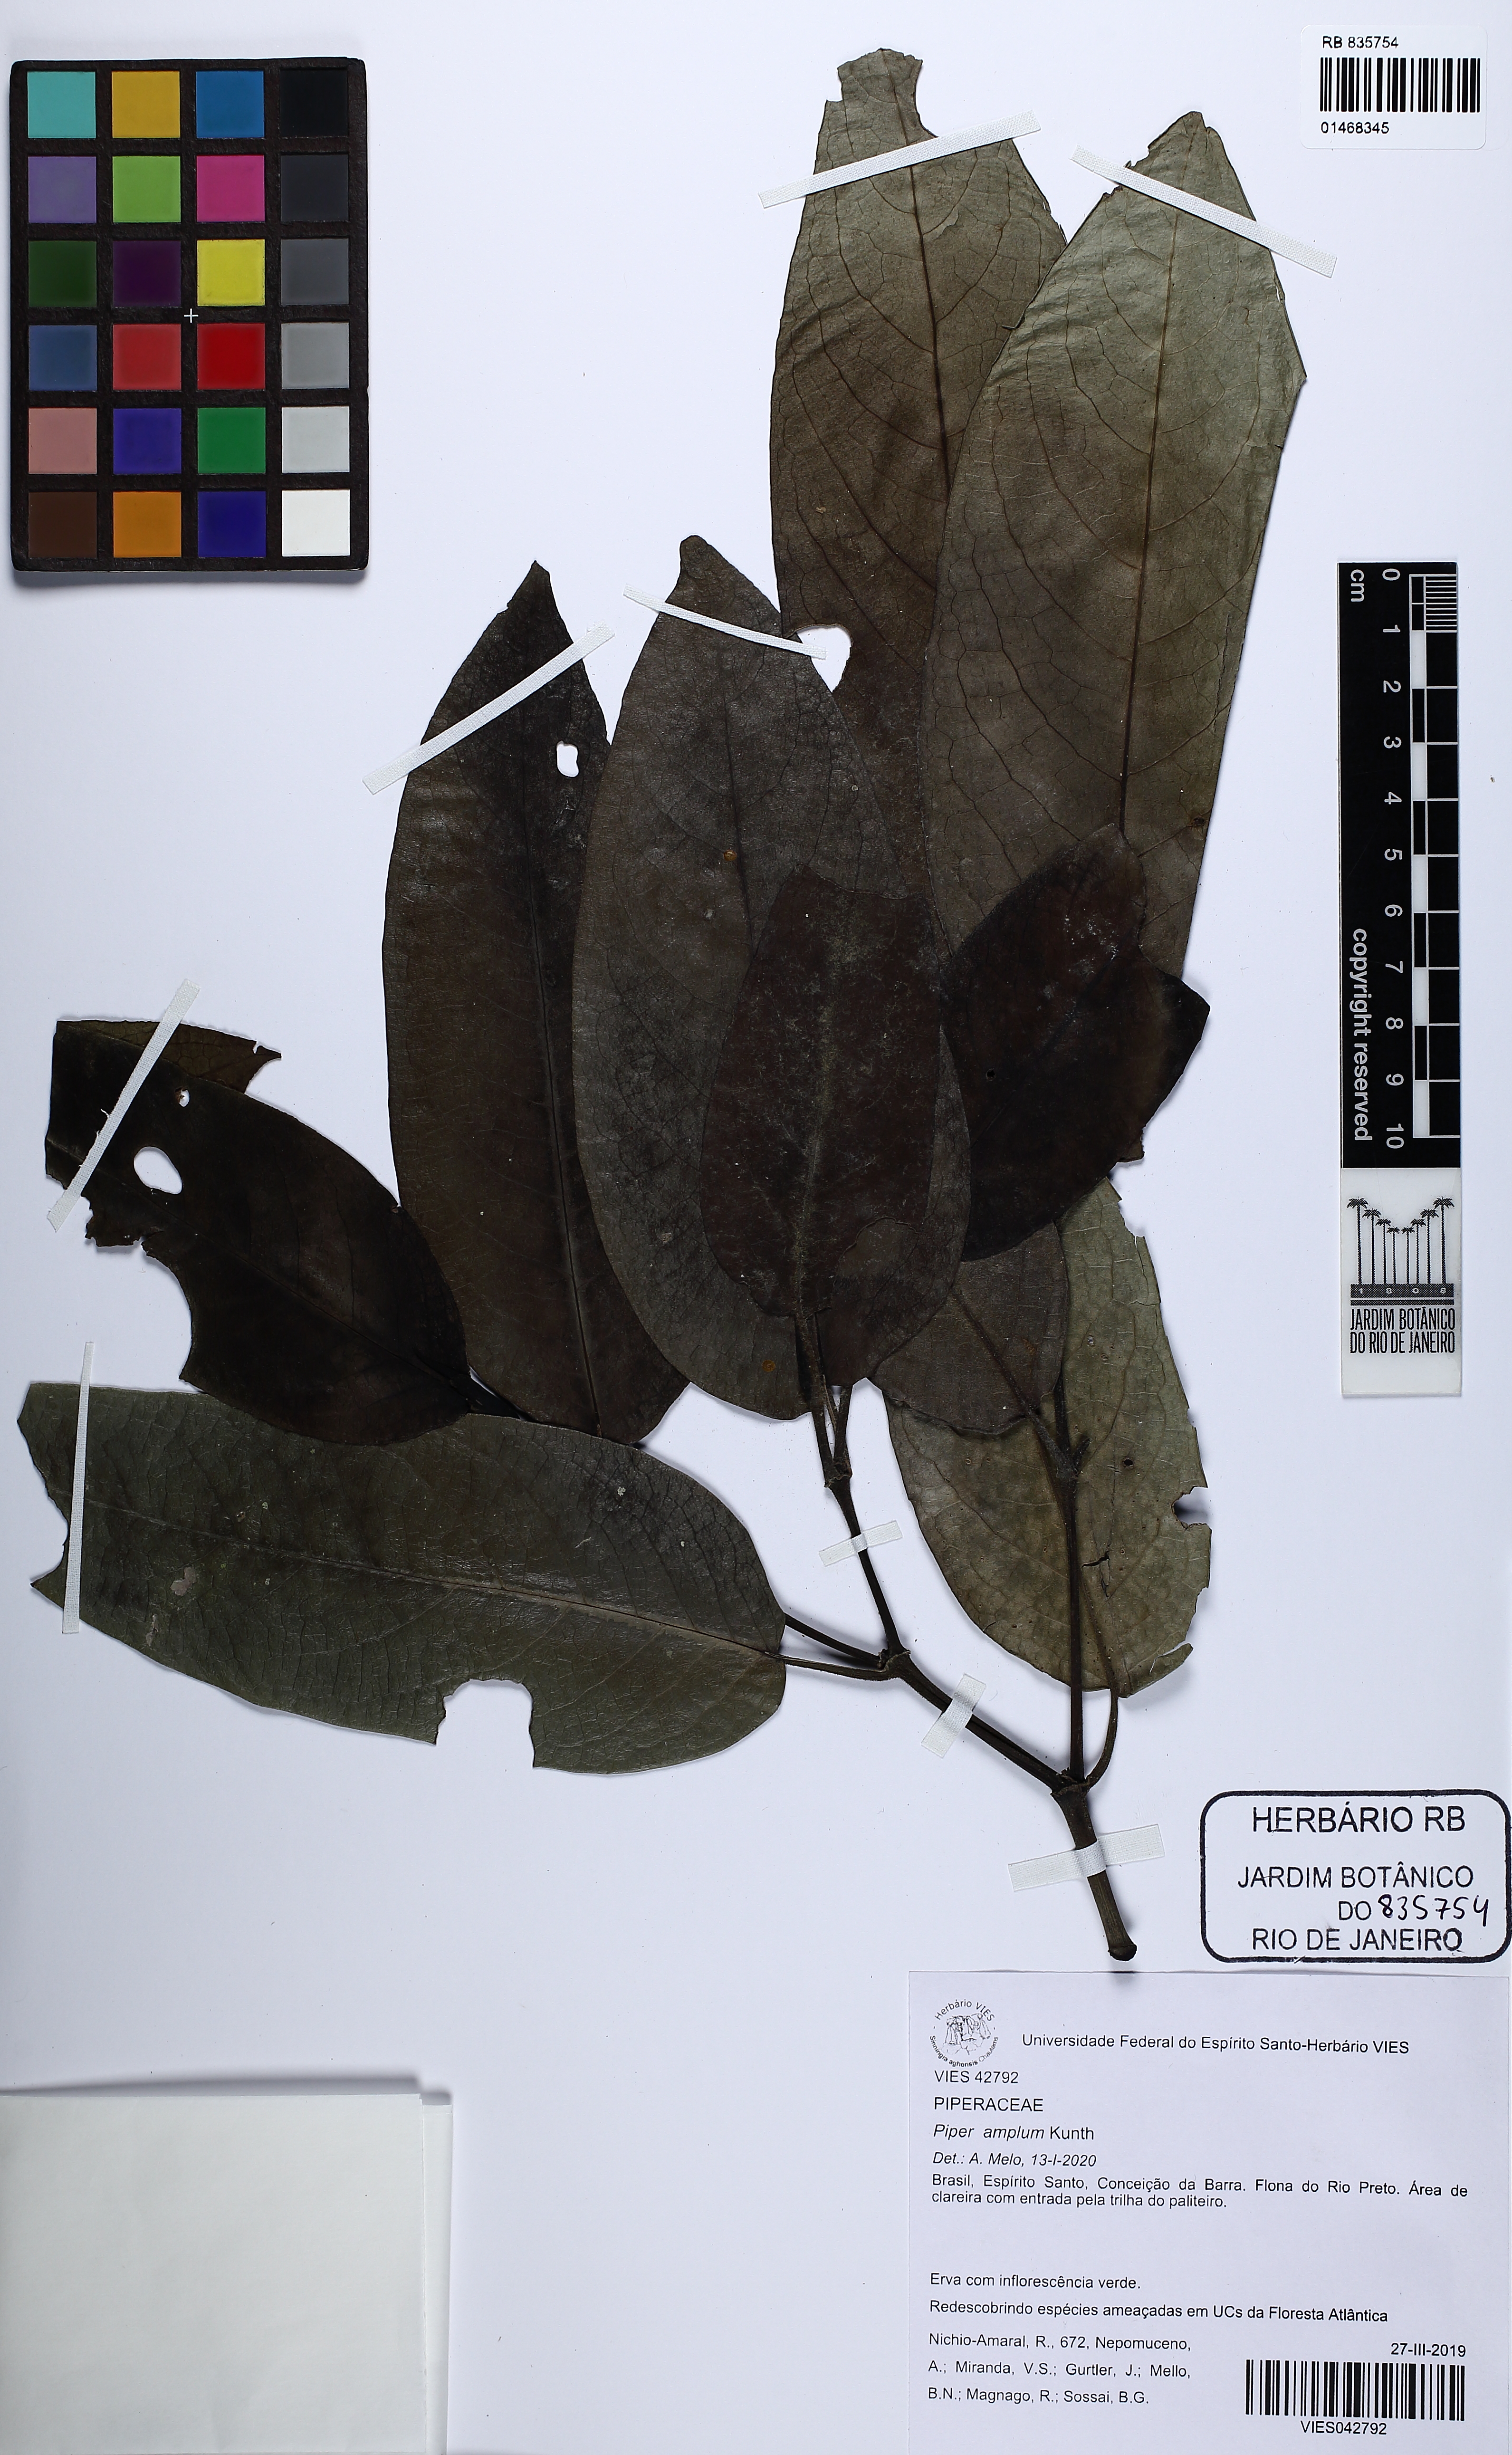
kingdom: Plantae
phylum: Tracheophyta
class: Magnoliopsida
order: Piperales
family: Piperaceae
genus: Piper
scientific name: Piper fluminense
